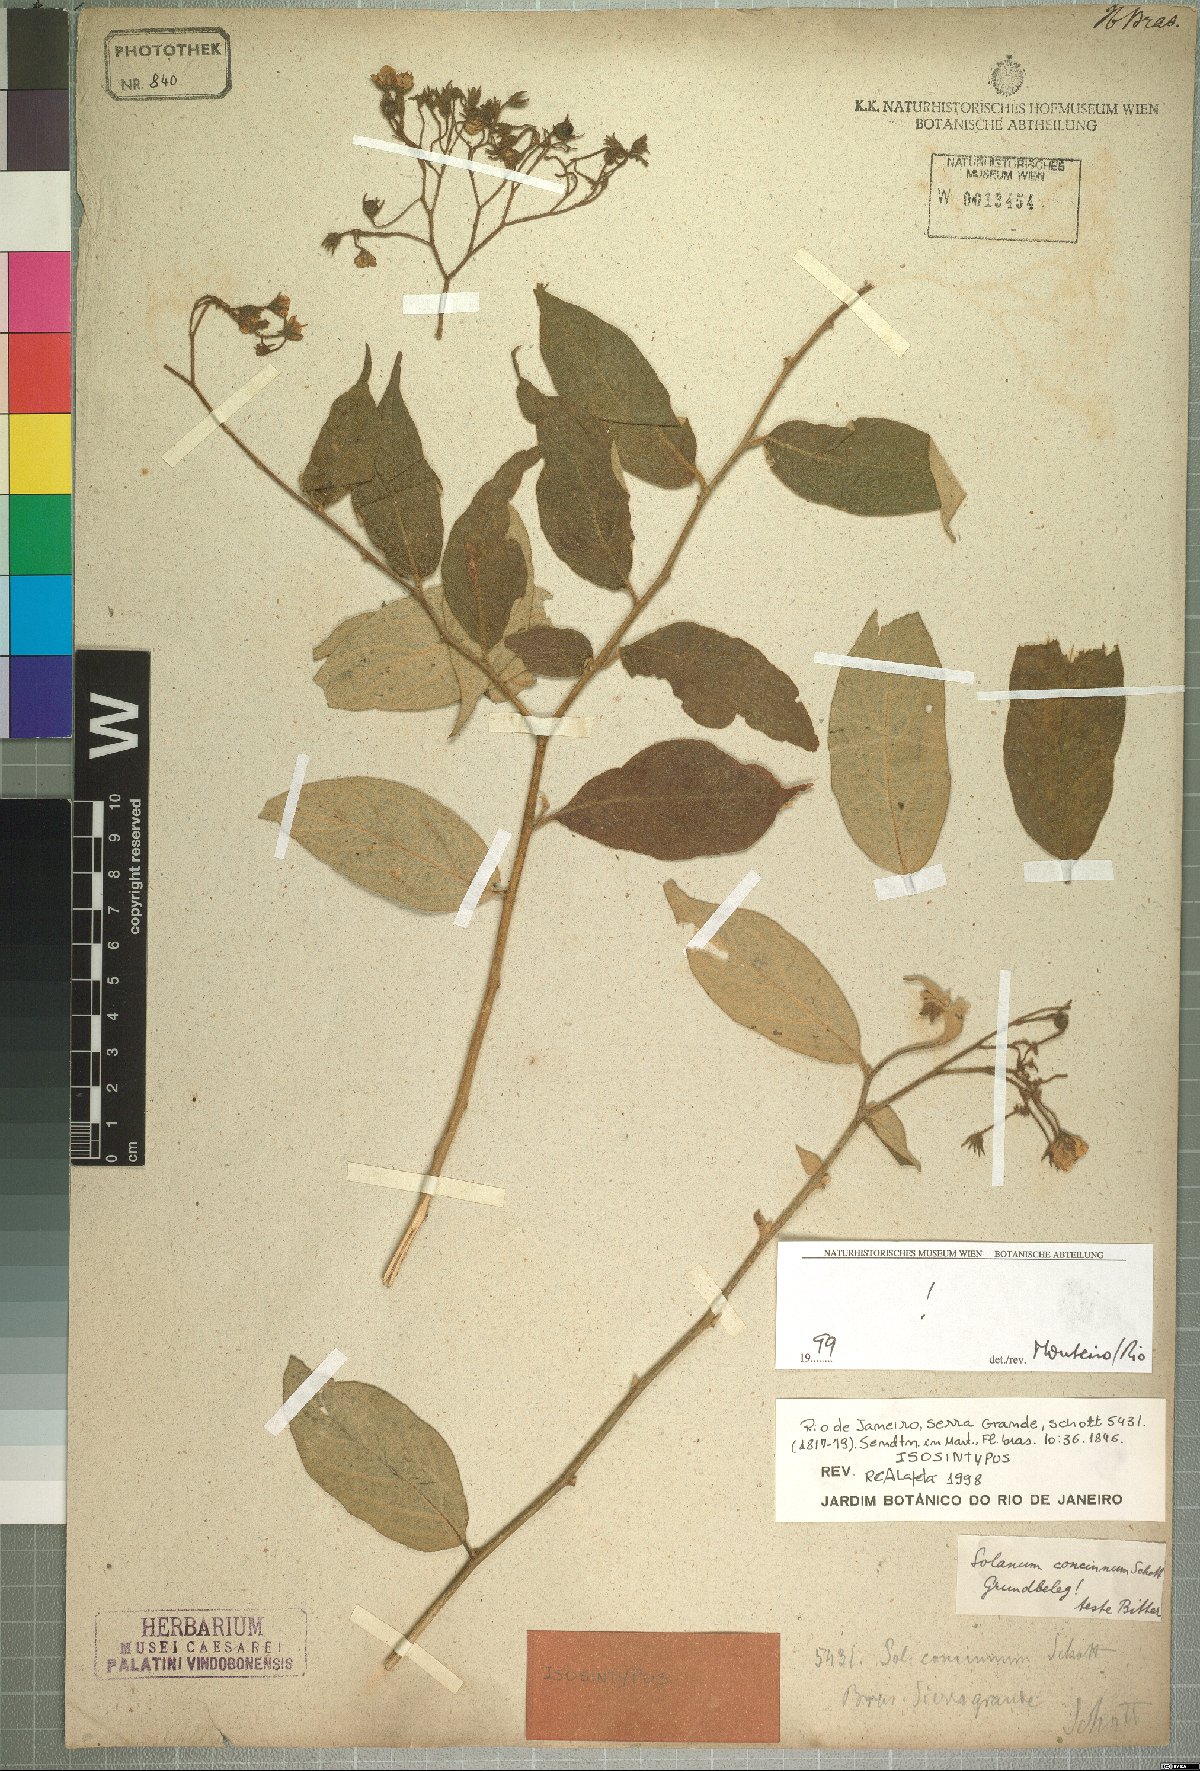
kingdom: Plantae
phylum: Tracheophyta
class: Magnoliopsida
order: Solanales
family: Solanaceae
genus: Solanum
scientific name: Solanum concinnum
